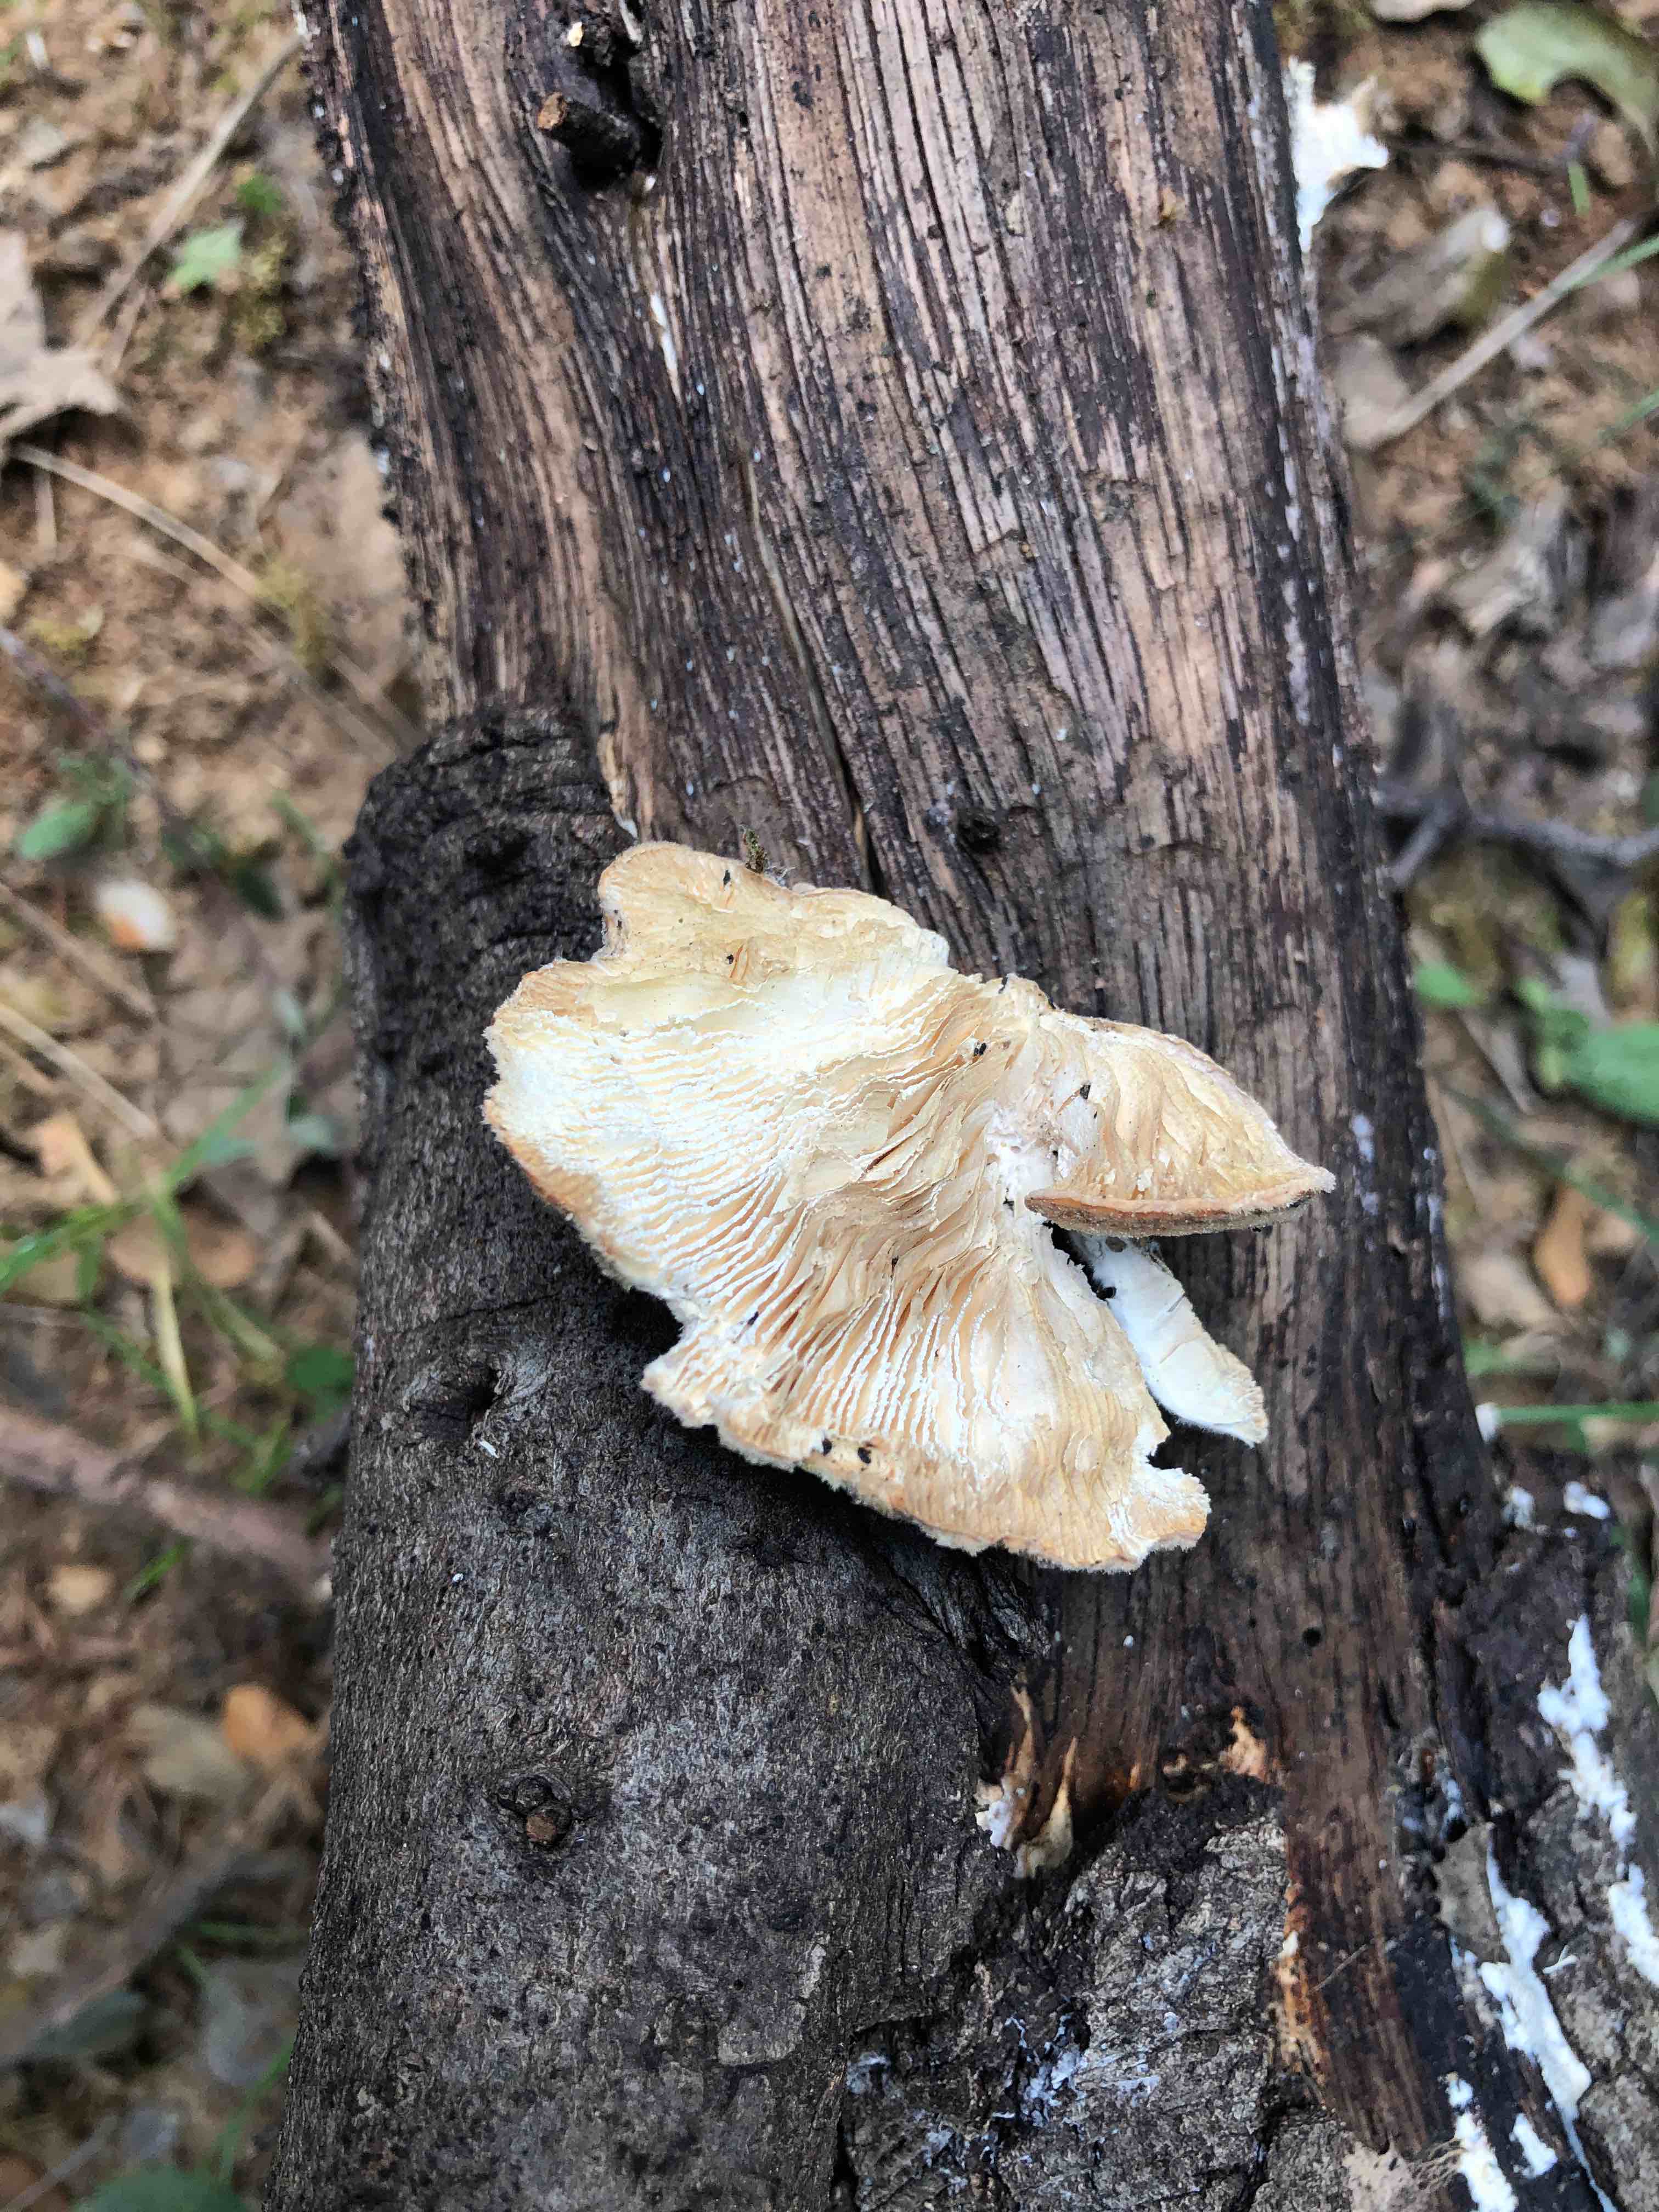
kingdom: Fungi
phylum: Basidiomycota
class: Agaricomycetes
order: Polyporales
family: Polyporaceae
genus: Lenzites
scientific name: Lenzites betulinus
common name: birke-læderporesvamp
